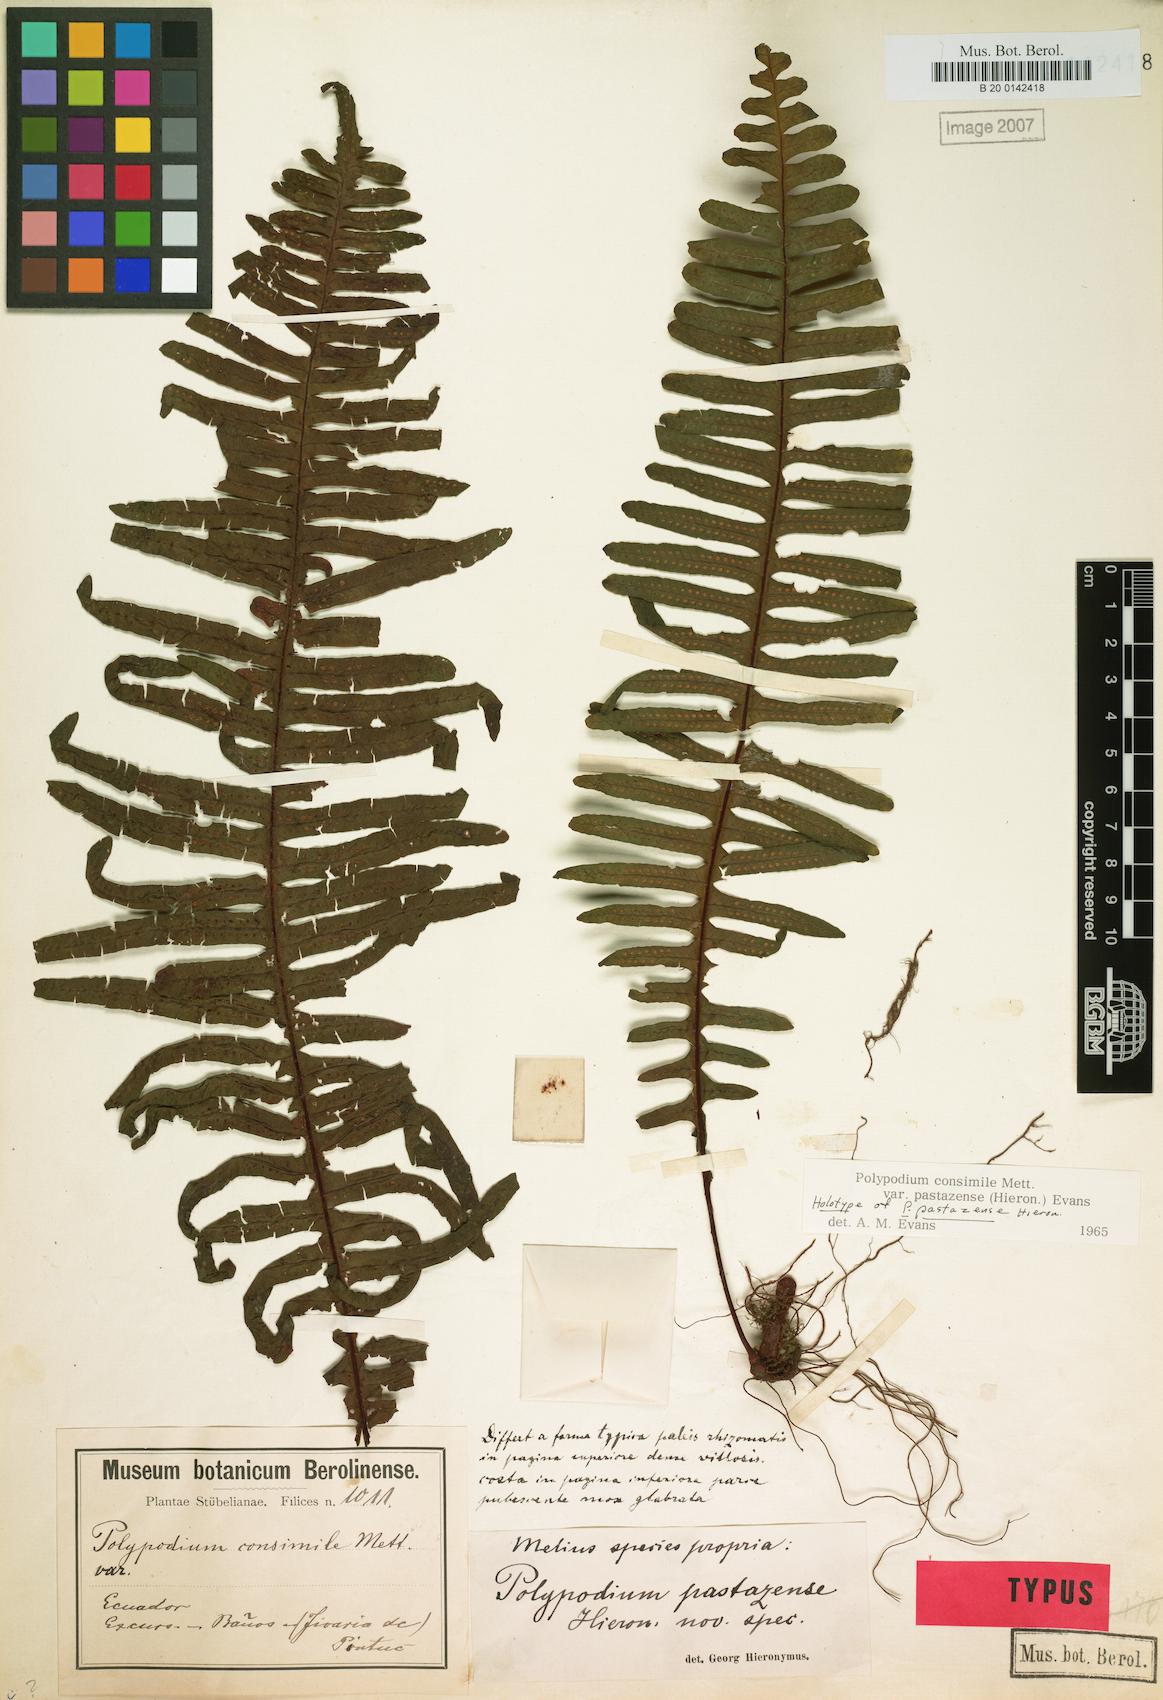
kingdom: Plantae
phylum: Tracheophyta
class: Polypodiopsida
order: Polypodiales
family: Polypodiaceae
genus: Pecluma
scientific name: Pecluma pastazensis
